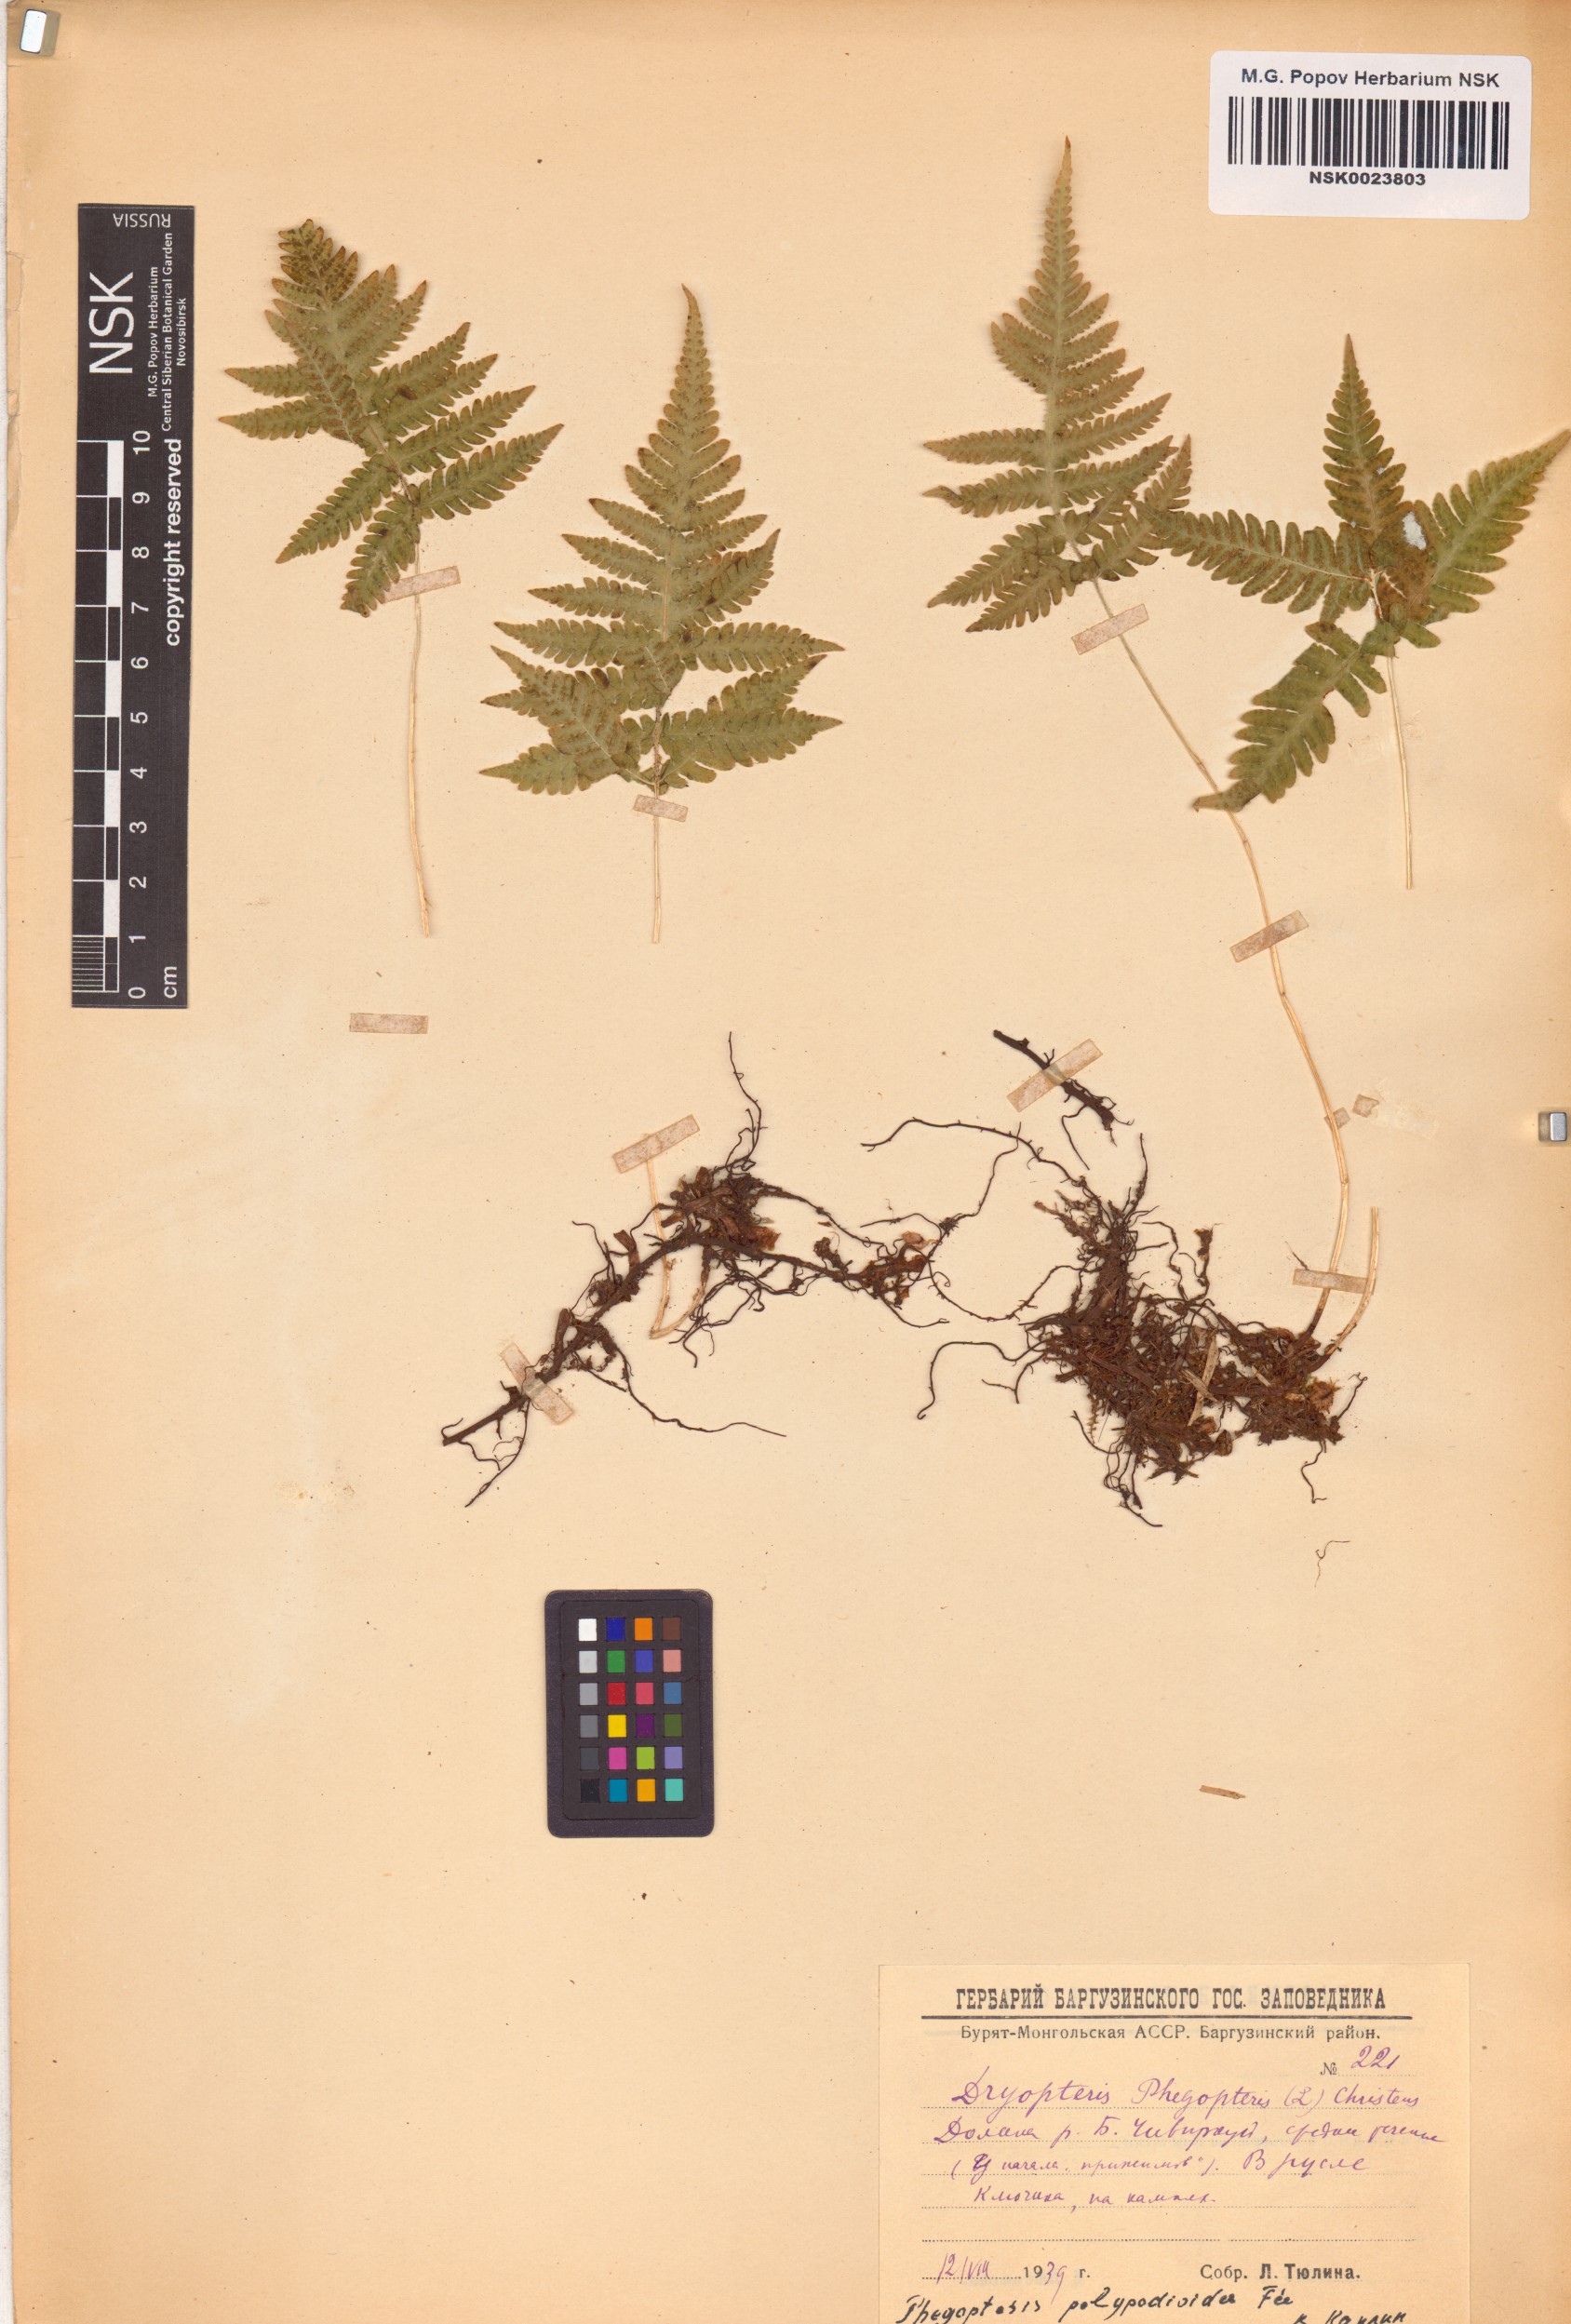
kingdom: Plantae
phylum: Tracheophyta
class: Polypodiopsida
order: Polypodiales
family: Thelypteridaceae
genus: Phegopteris
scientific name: Phegopteris connectilis
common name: Beech fern
